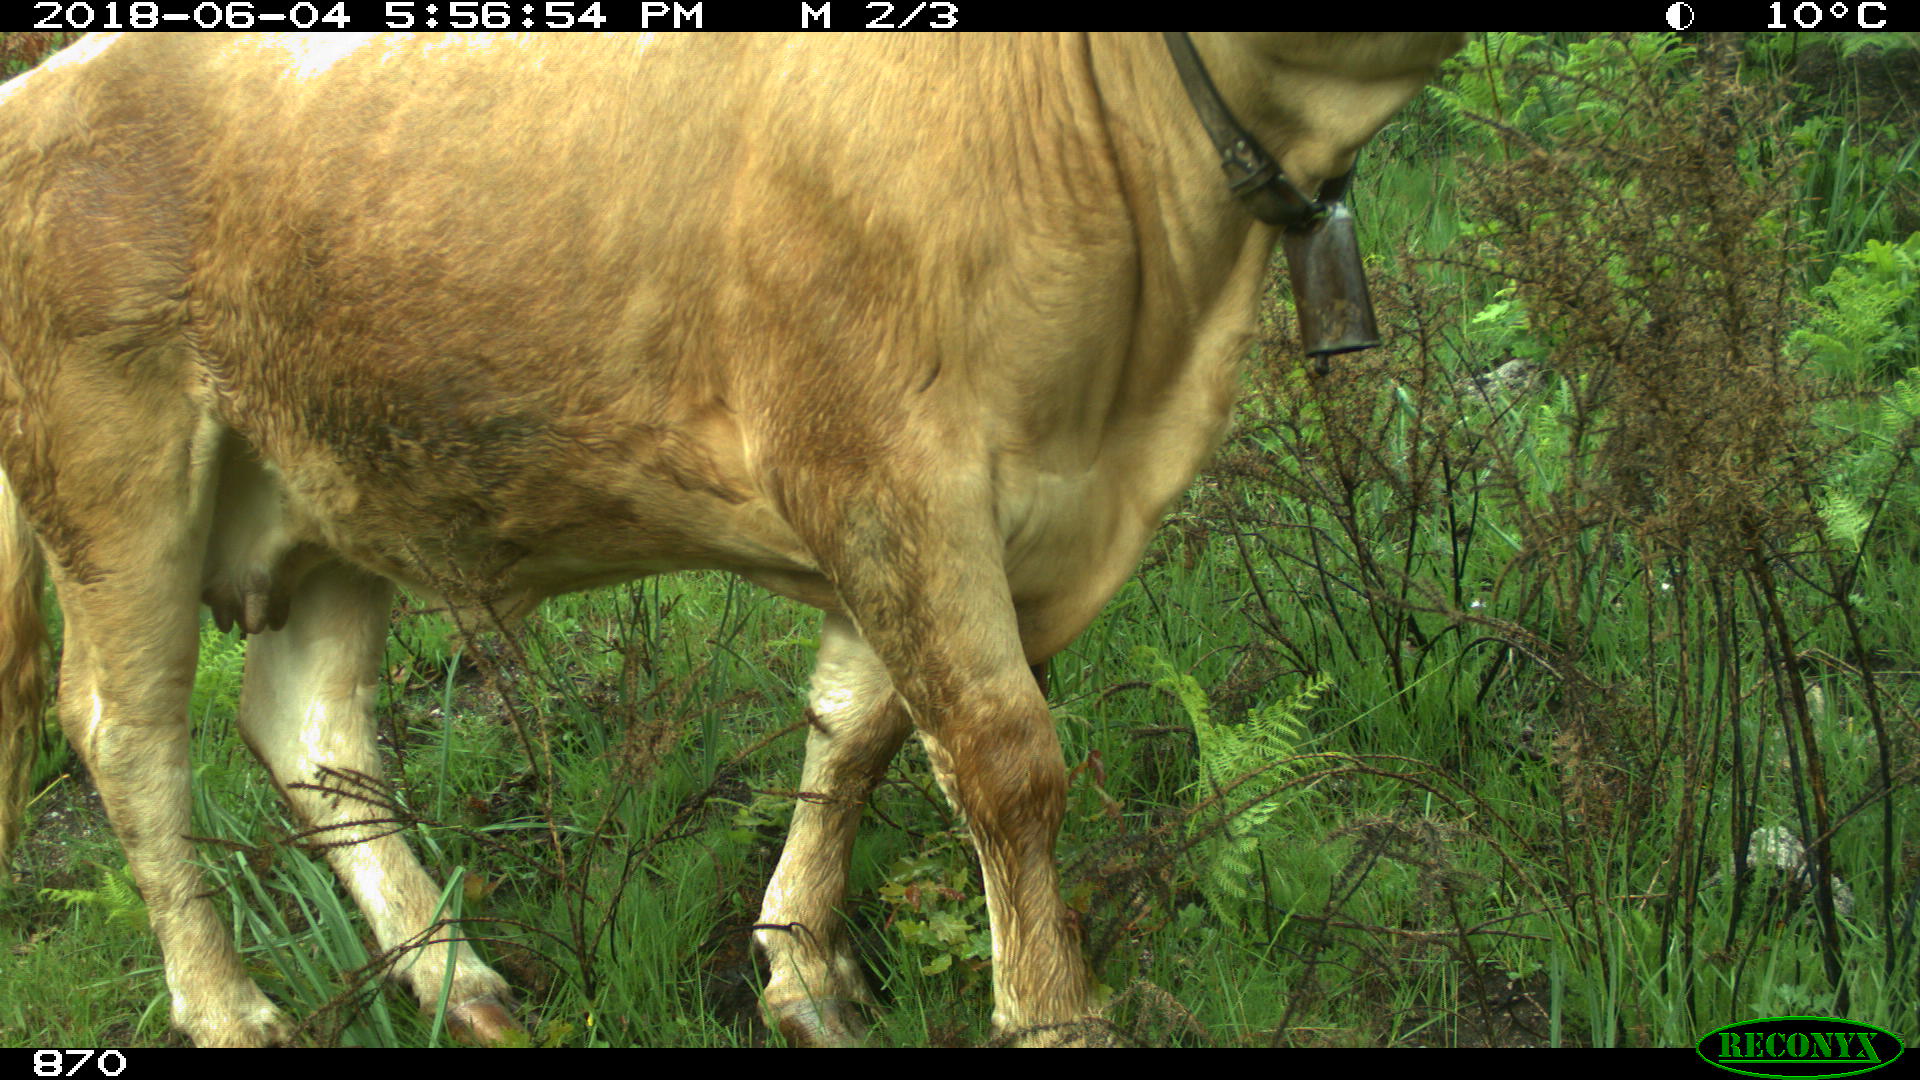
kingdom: Animalia
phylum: Chordata
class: Mammalia
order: Artiodactyla
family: Bovidae
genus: Bos
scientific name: Bos taurus
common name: Domesticated cattle
